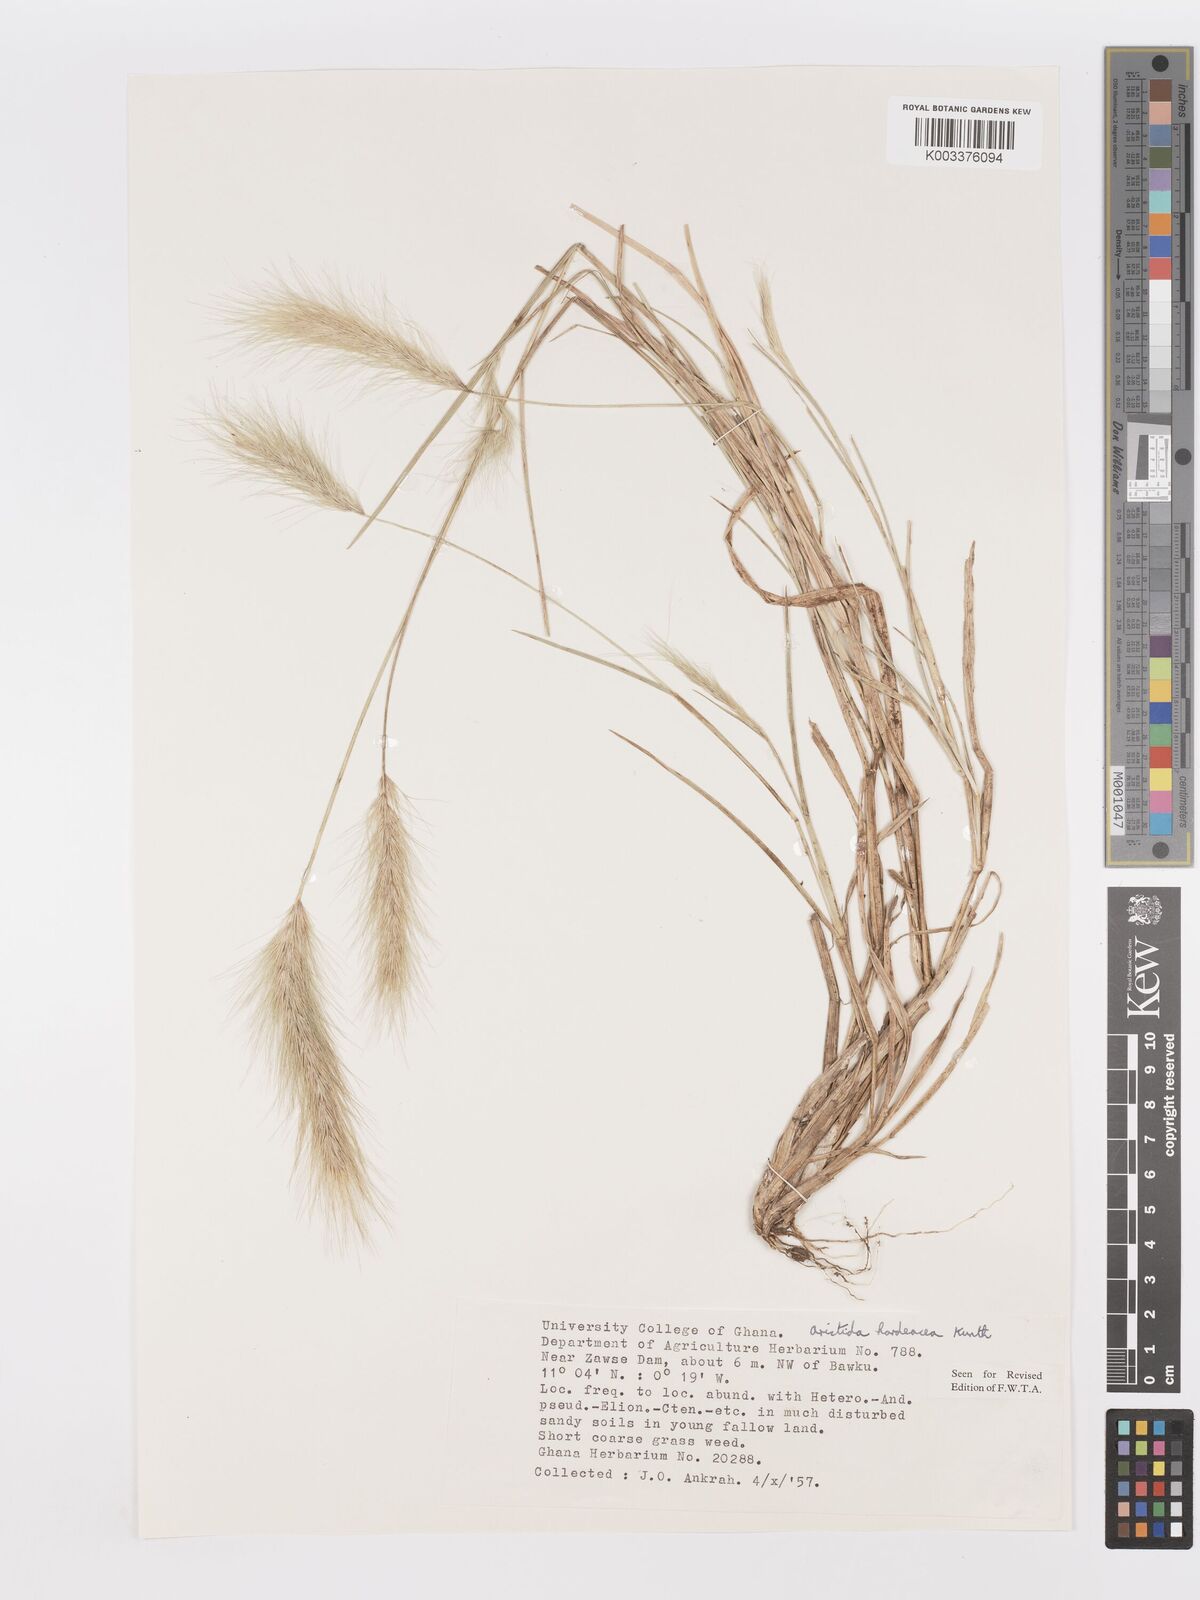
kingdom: Plantae
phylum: Tracheophyta
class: Liliopsida
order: Poales
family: Poaceae
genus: Aristida
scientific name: Aristida hordeacea
